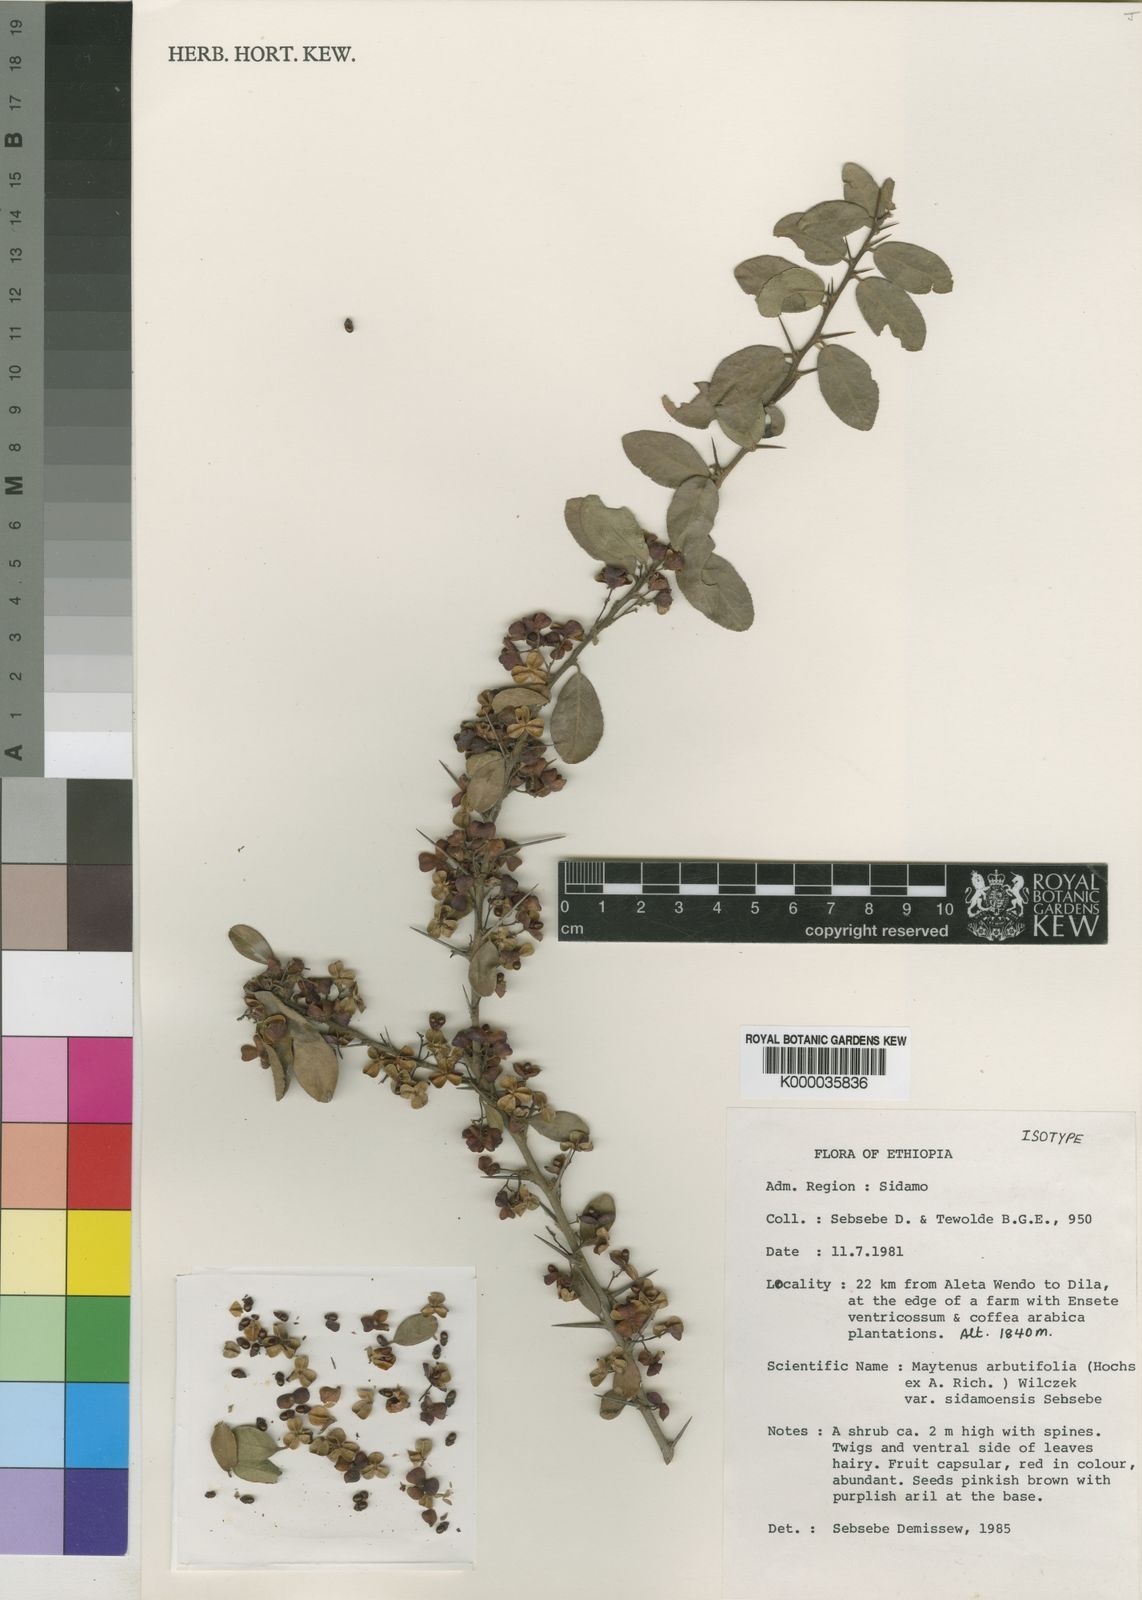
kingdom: Plantae
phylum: Tracheophyta
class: Magnoliopsida
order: Celastrales
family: Celastraceae
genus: Gymnosporia
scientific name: Gymnosporia arbutifolia
